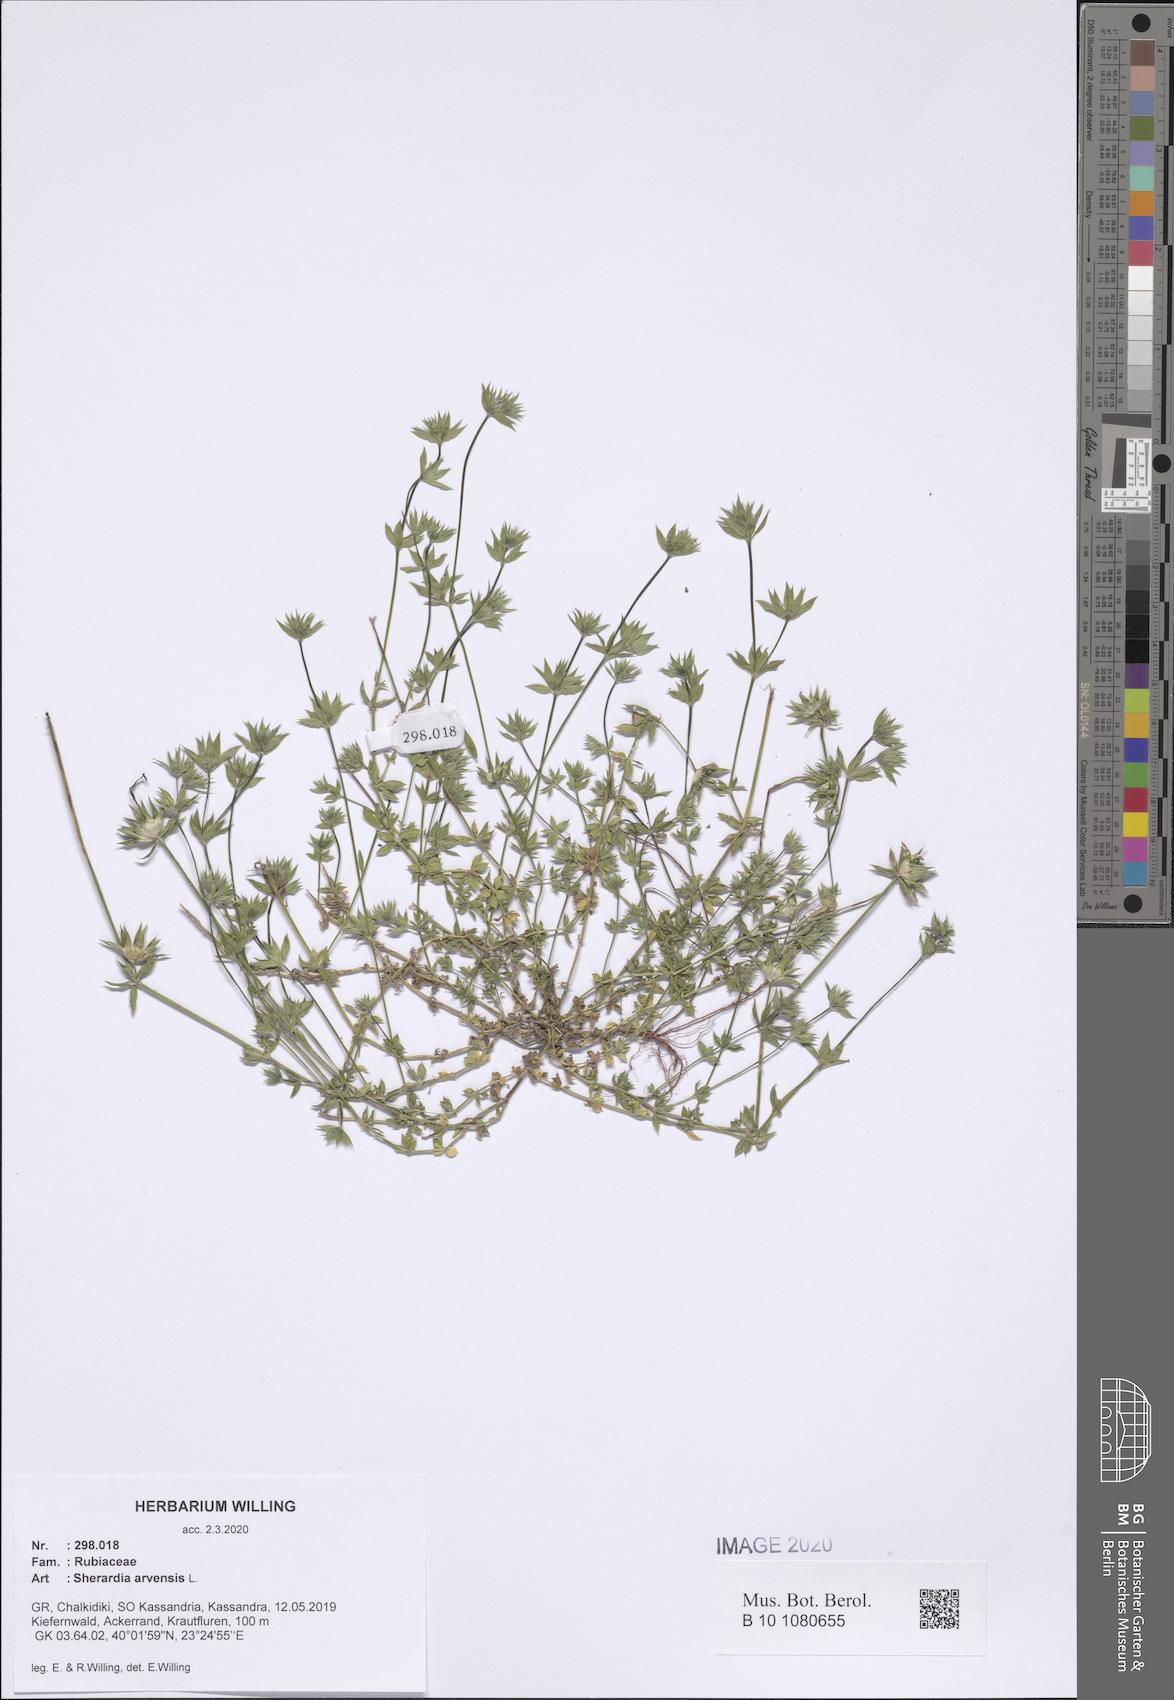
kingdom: Plantae
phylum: Tracheophyta
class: Magnoliopsida
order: Gentianales
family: Rubiaceae
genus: Sherardia
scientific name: Sherardia arvensis
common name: Field madder
